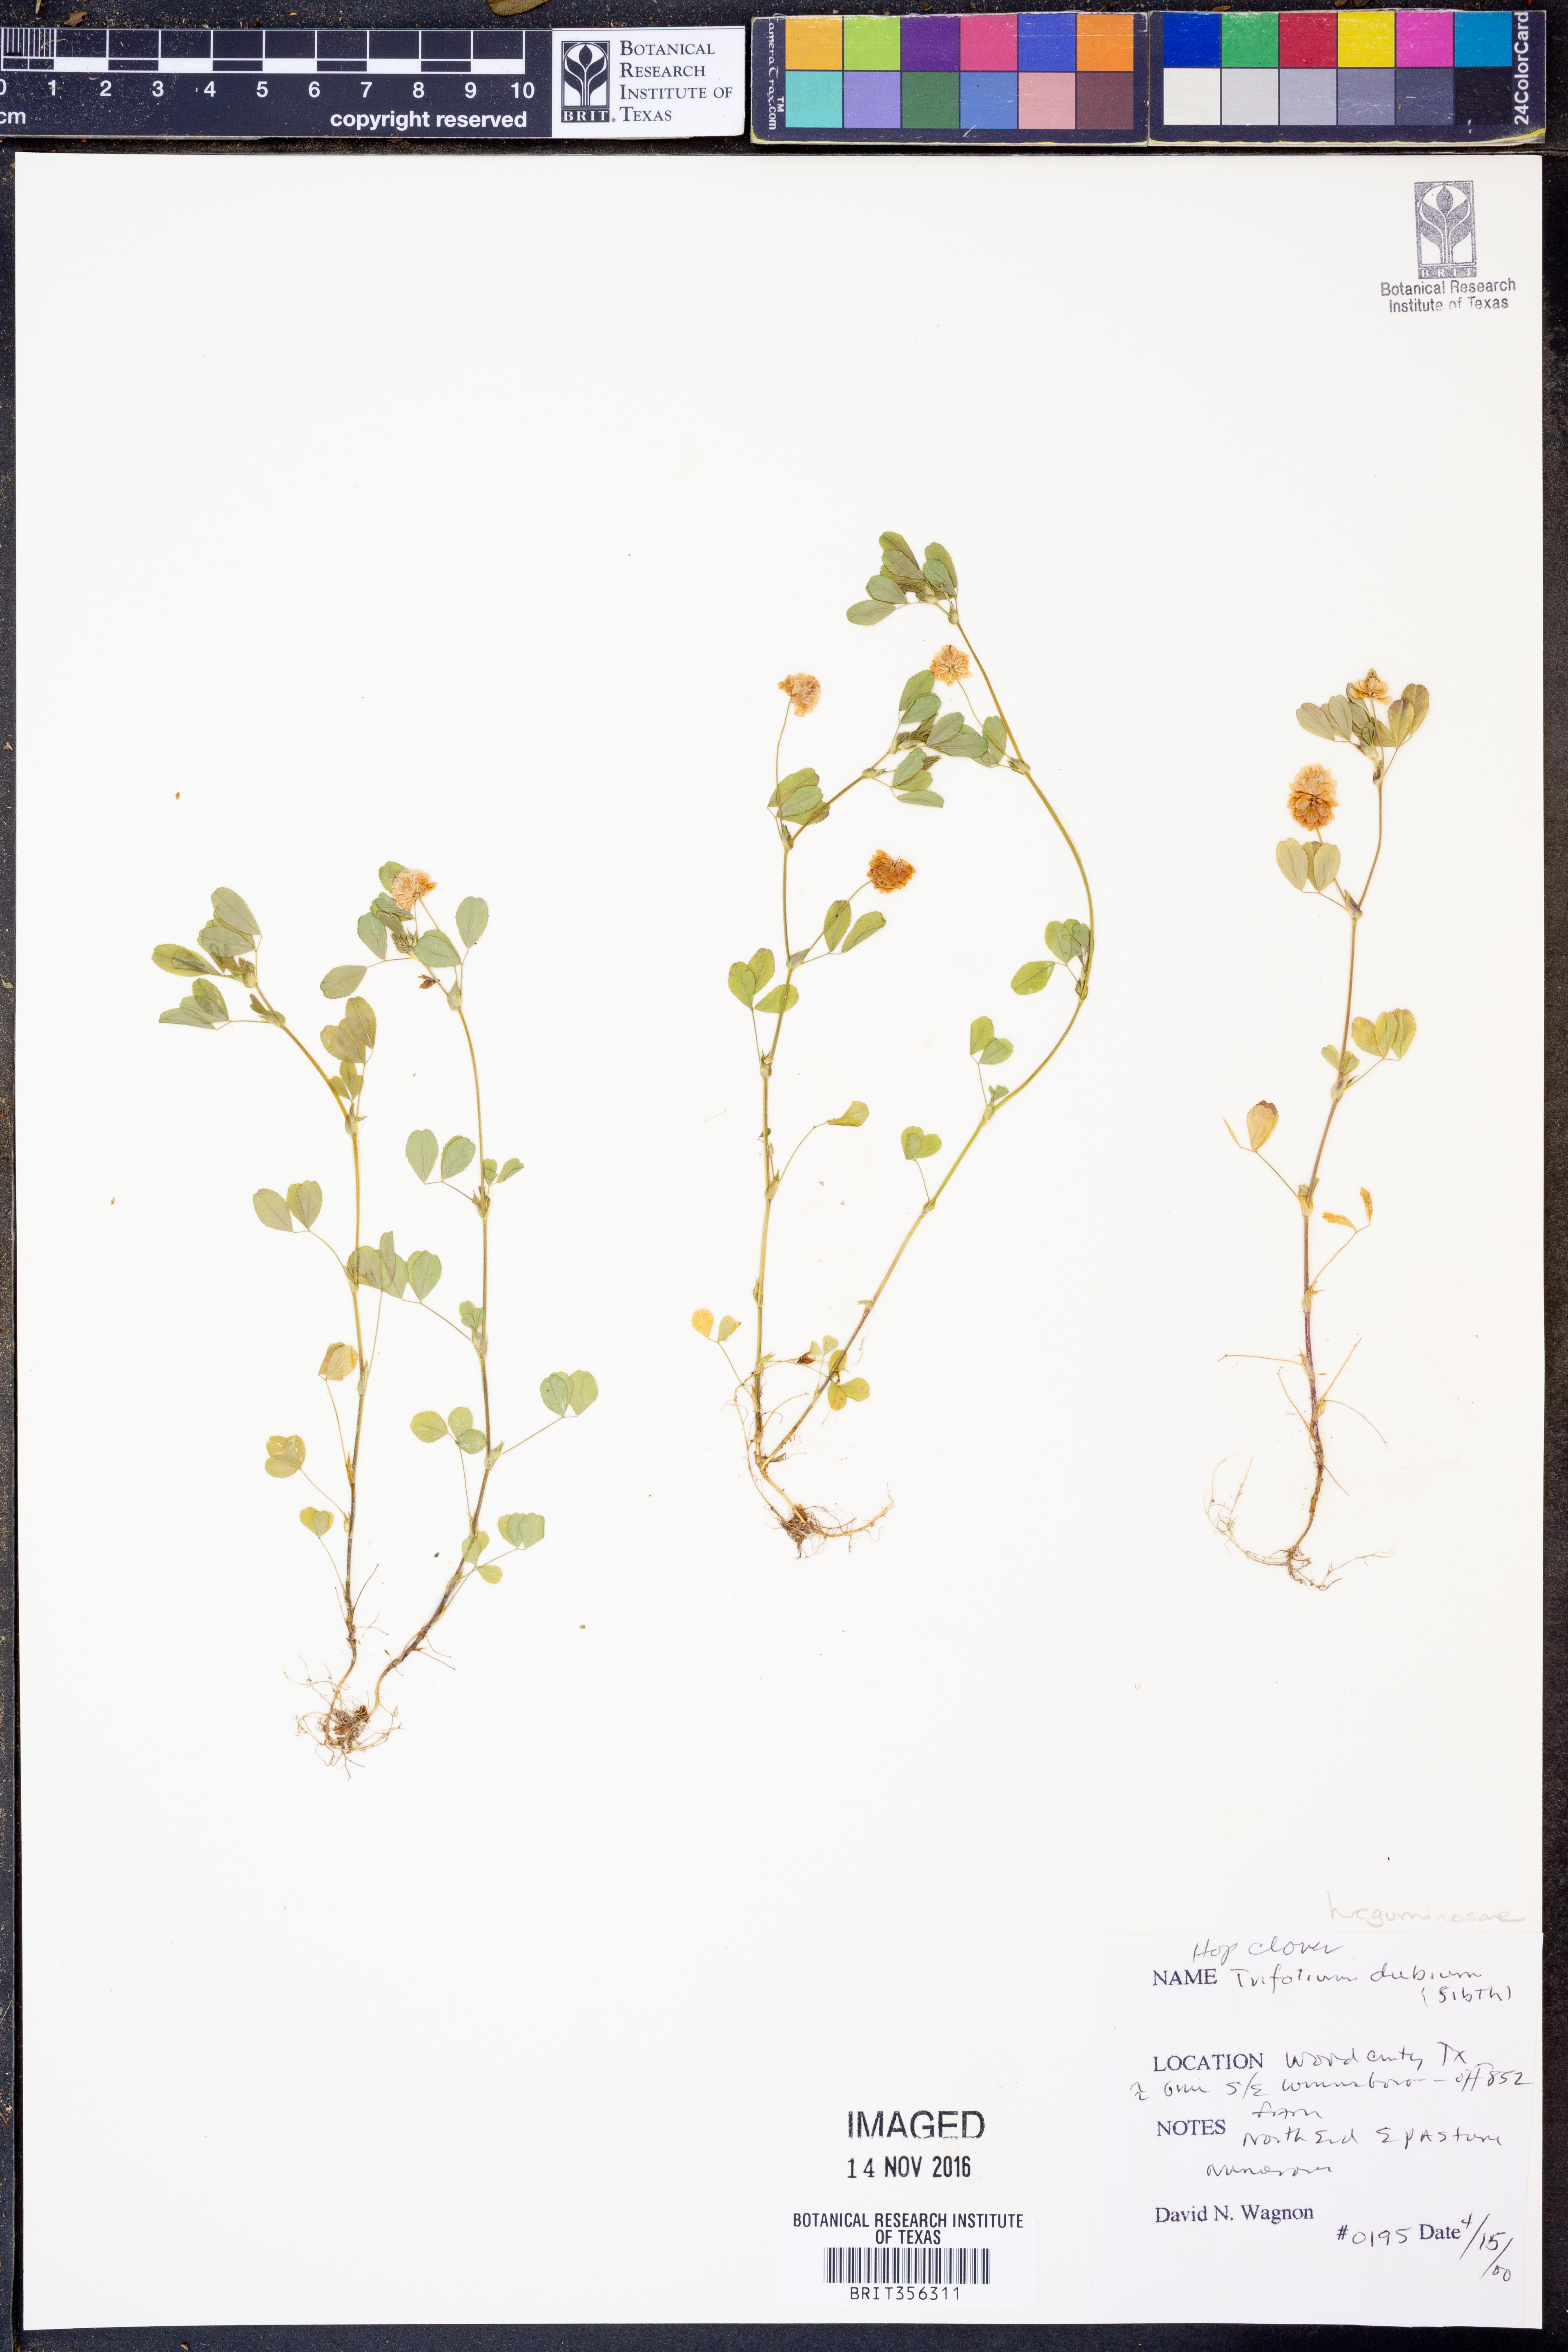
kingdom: Plantae
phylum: Tracheophyta
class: Magnoliopsida
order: Fabales
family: Fabaceae
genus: Trifolium
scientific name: Trifolium dubium
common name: Suckling clover
